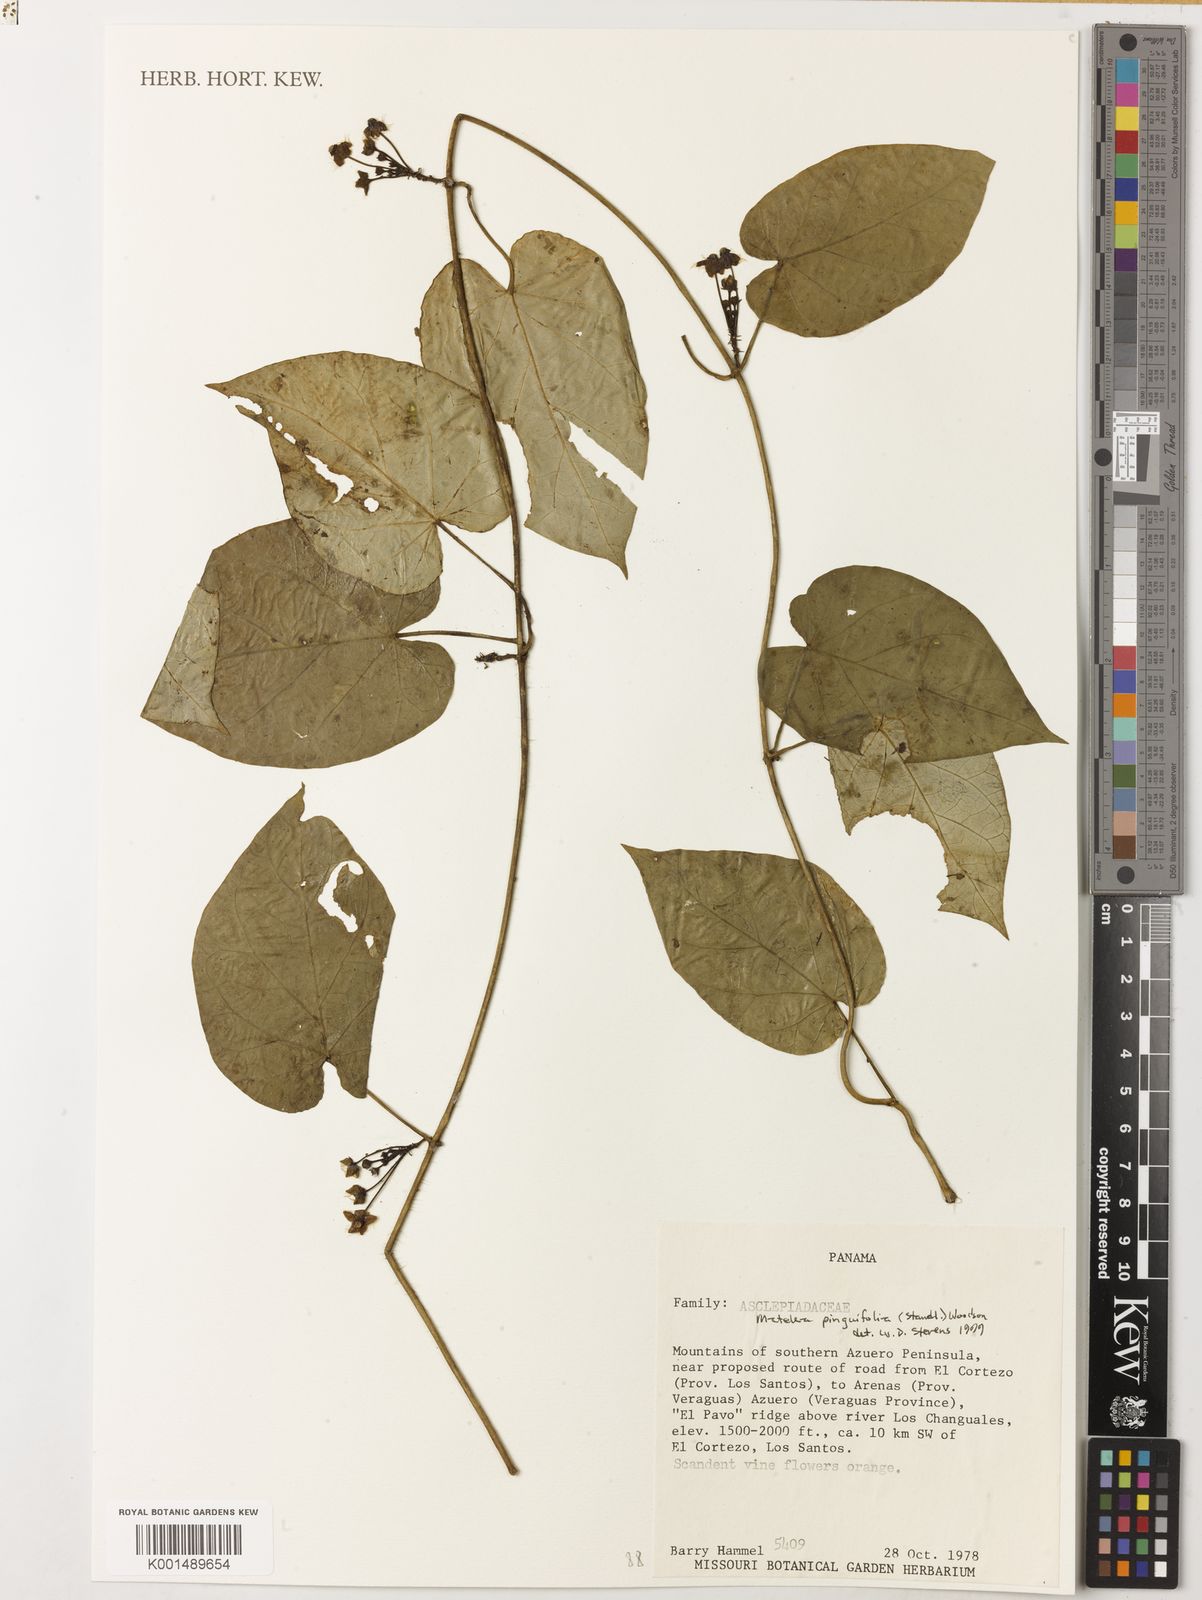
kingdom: Plantae
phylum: Tracheophyta
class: Magnoliopsida
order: Gentianales
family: Apocynaceae
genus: Matelea
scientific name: Matelea pinguifolia
